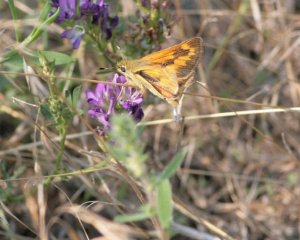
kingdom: Animalia
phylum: Arthropoda
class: Insecta
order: Lepidoptera
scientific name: Lepidoptera
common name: Butterflies
